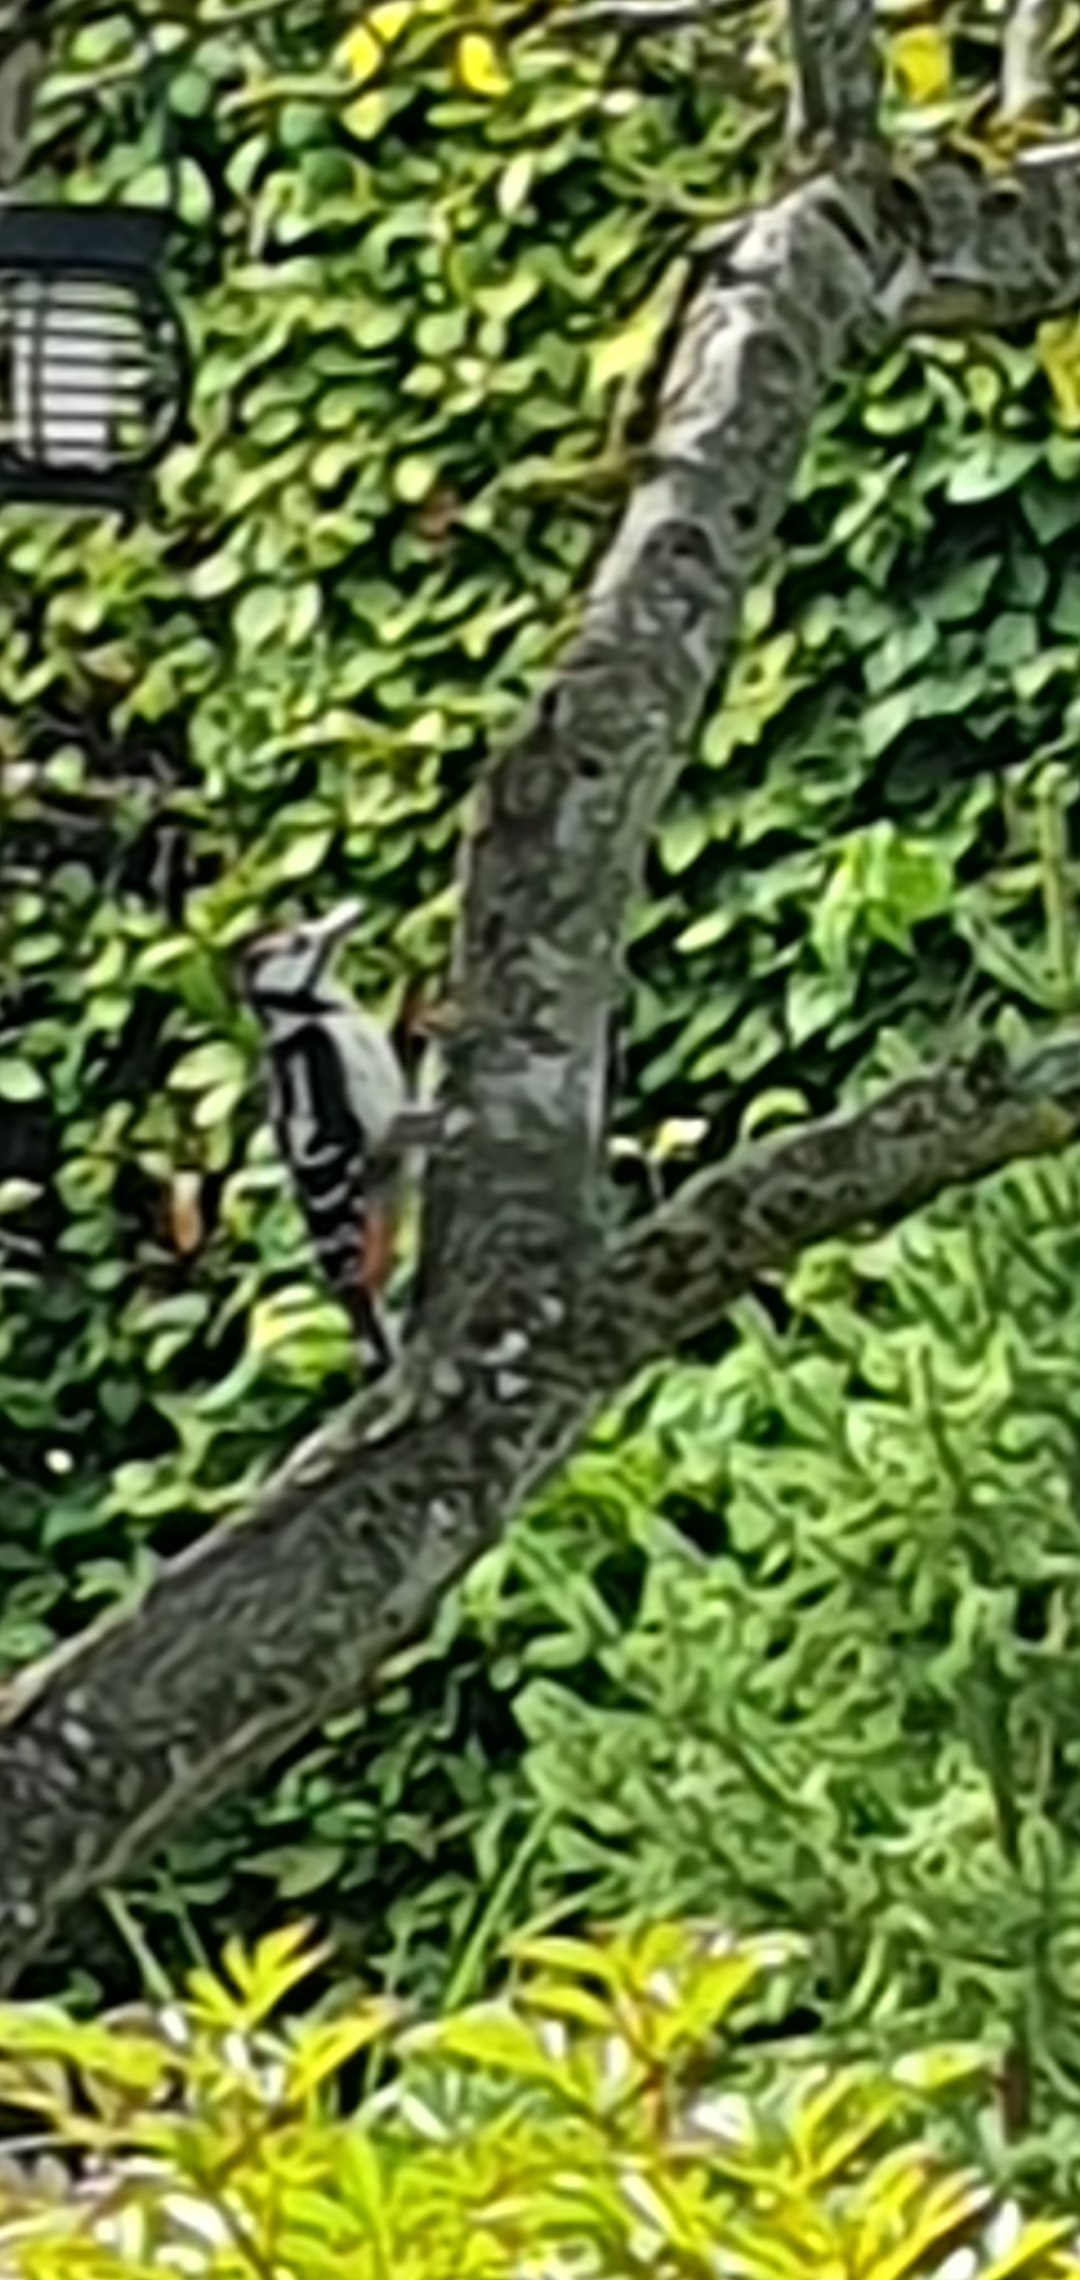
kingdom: Animalia
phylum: Chordata
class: Aves
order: Piciformes
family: Picidae
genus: Dendrocopos
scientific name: Dendrocopos major
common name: Stor flagspætte
